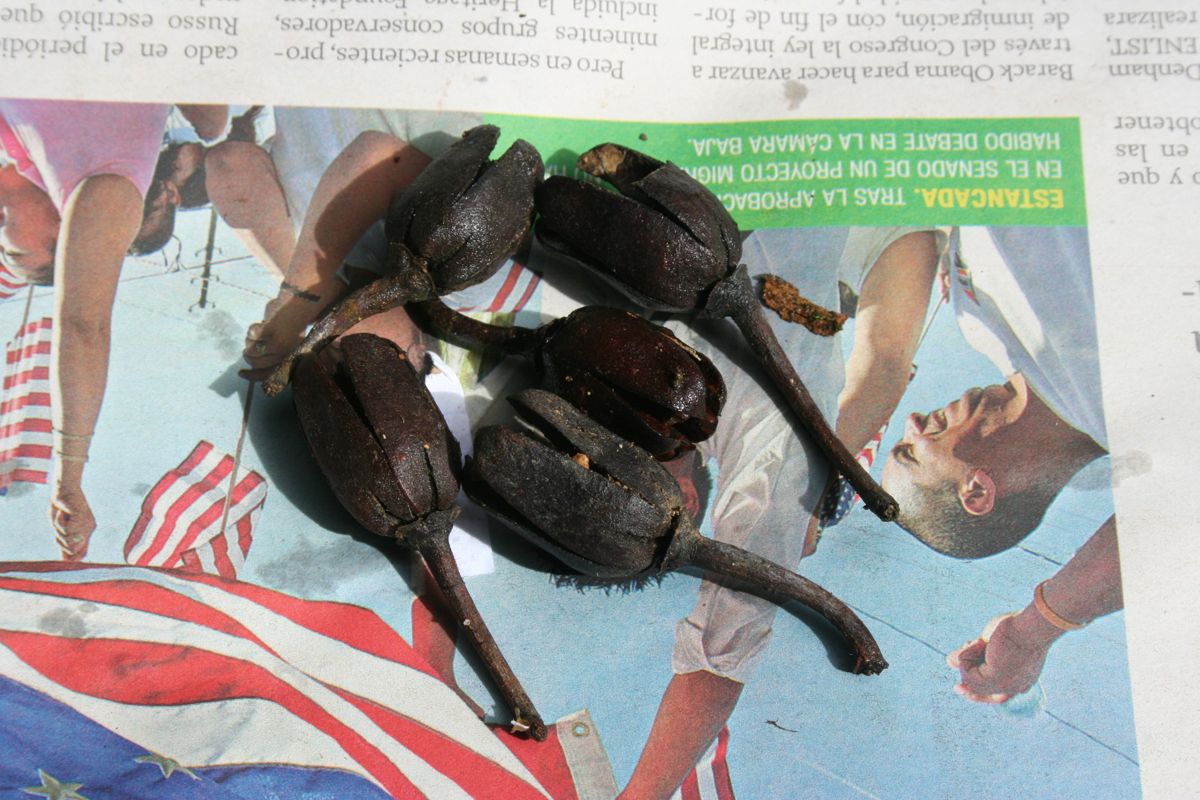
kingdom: Plantae
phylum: Tracheophyta
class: Magnoliopsida
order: Ericales
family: Theaceae
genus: Gordonia
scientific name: Gordonia brenesii
